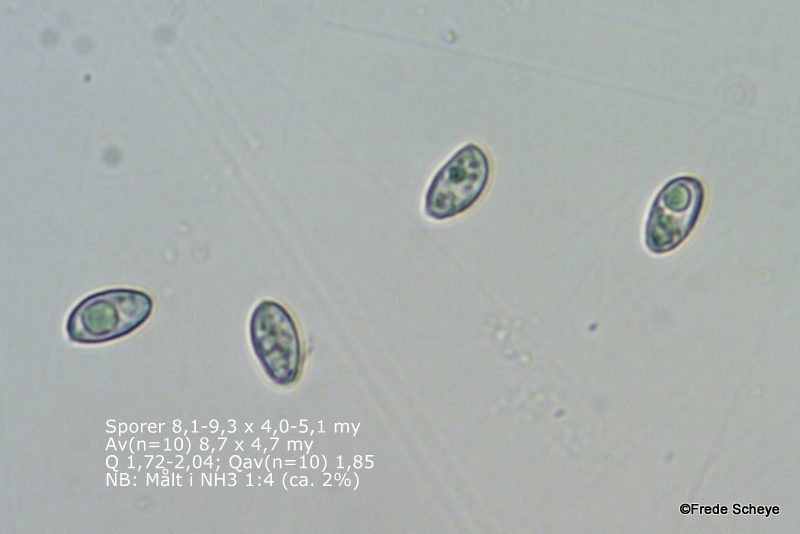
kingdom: Fungi
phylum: Basidiomycota
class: Agaricomycetes
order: Agaricales
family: Crepidotaceae
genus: Crepidotus
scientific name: Crepidotus luteolus
